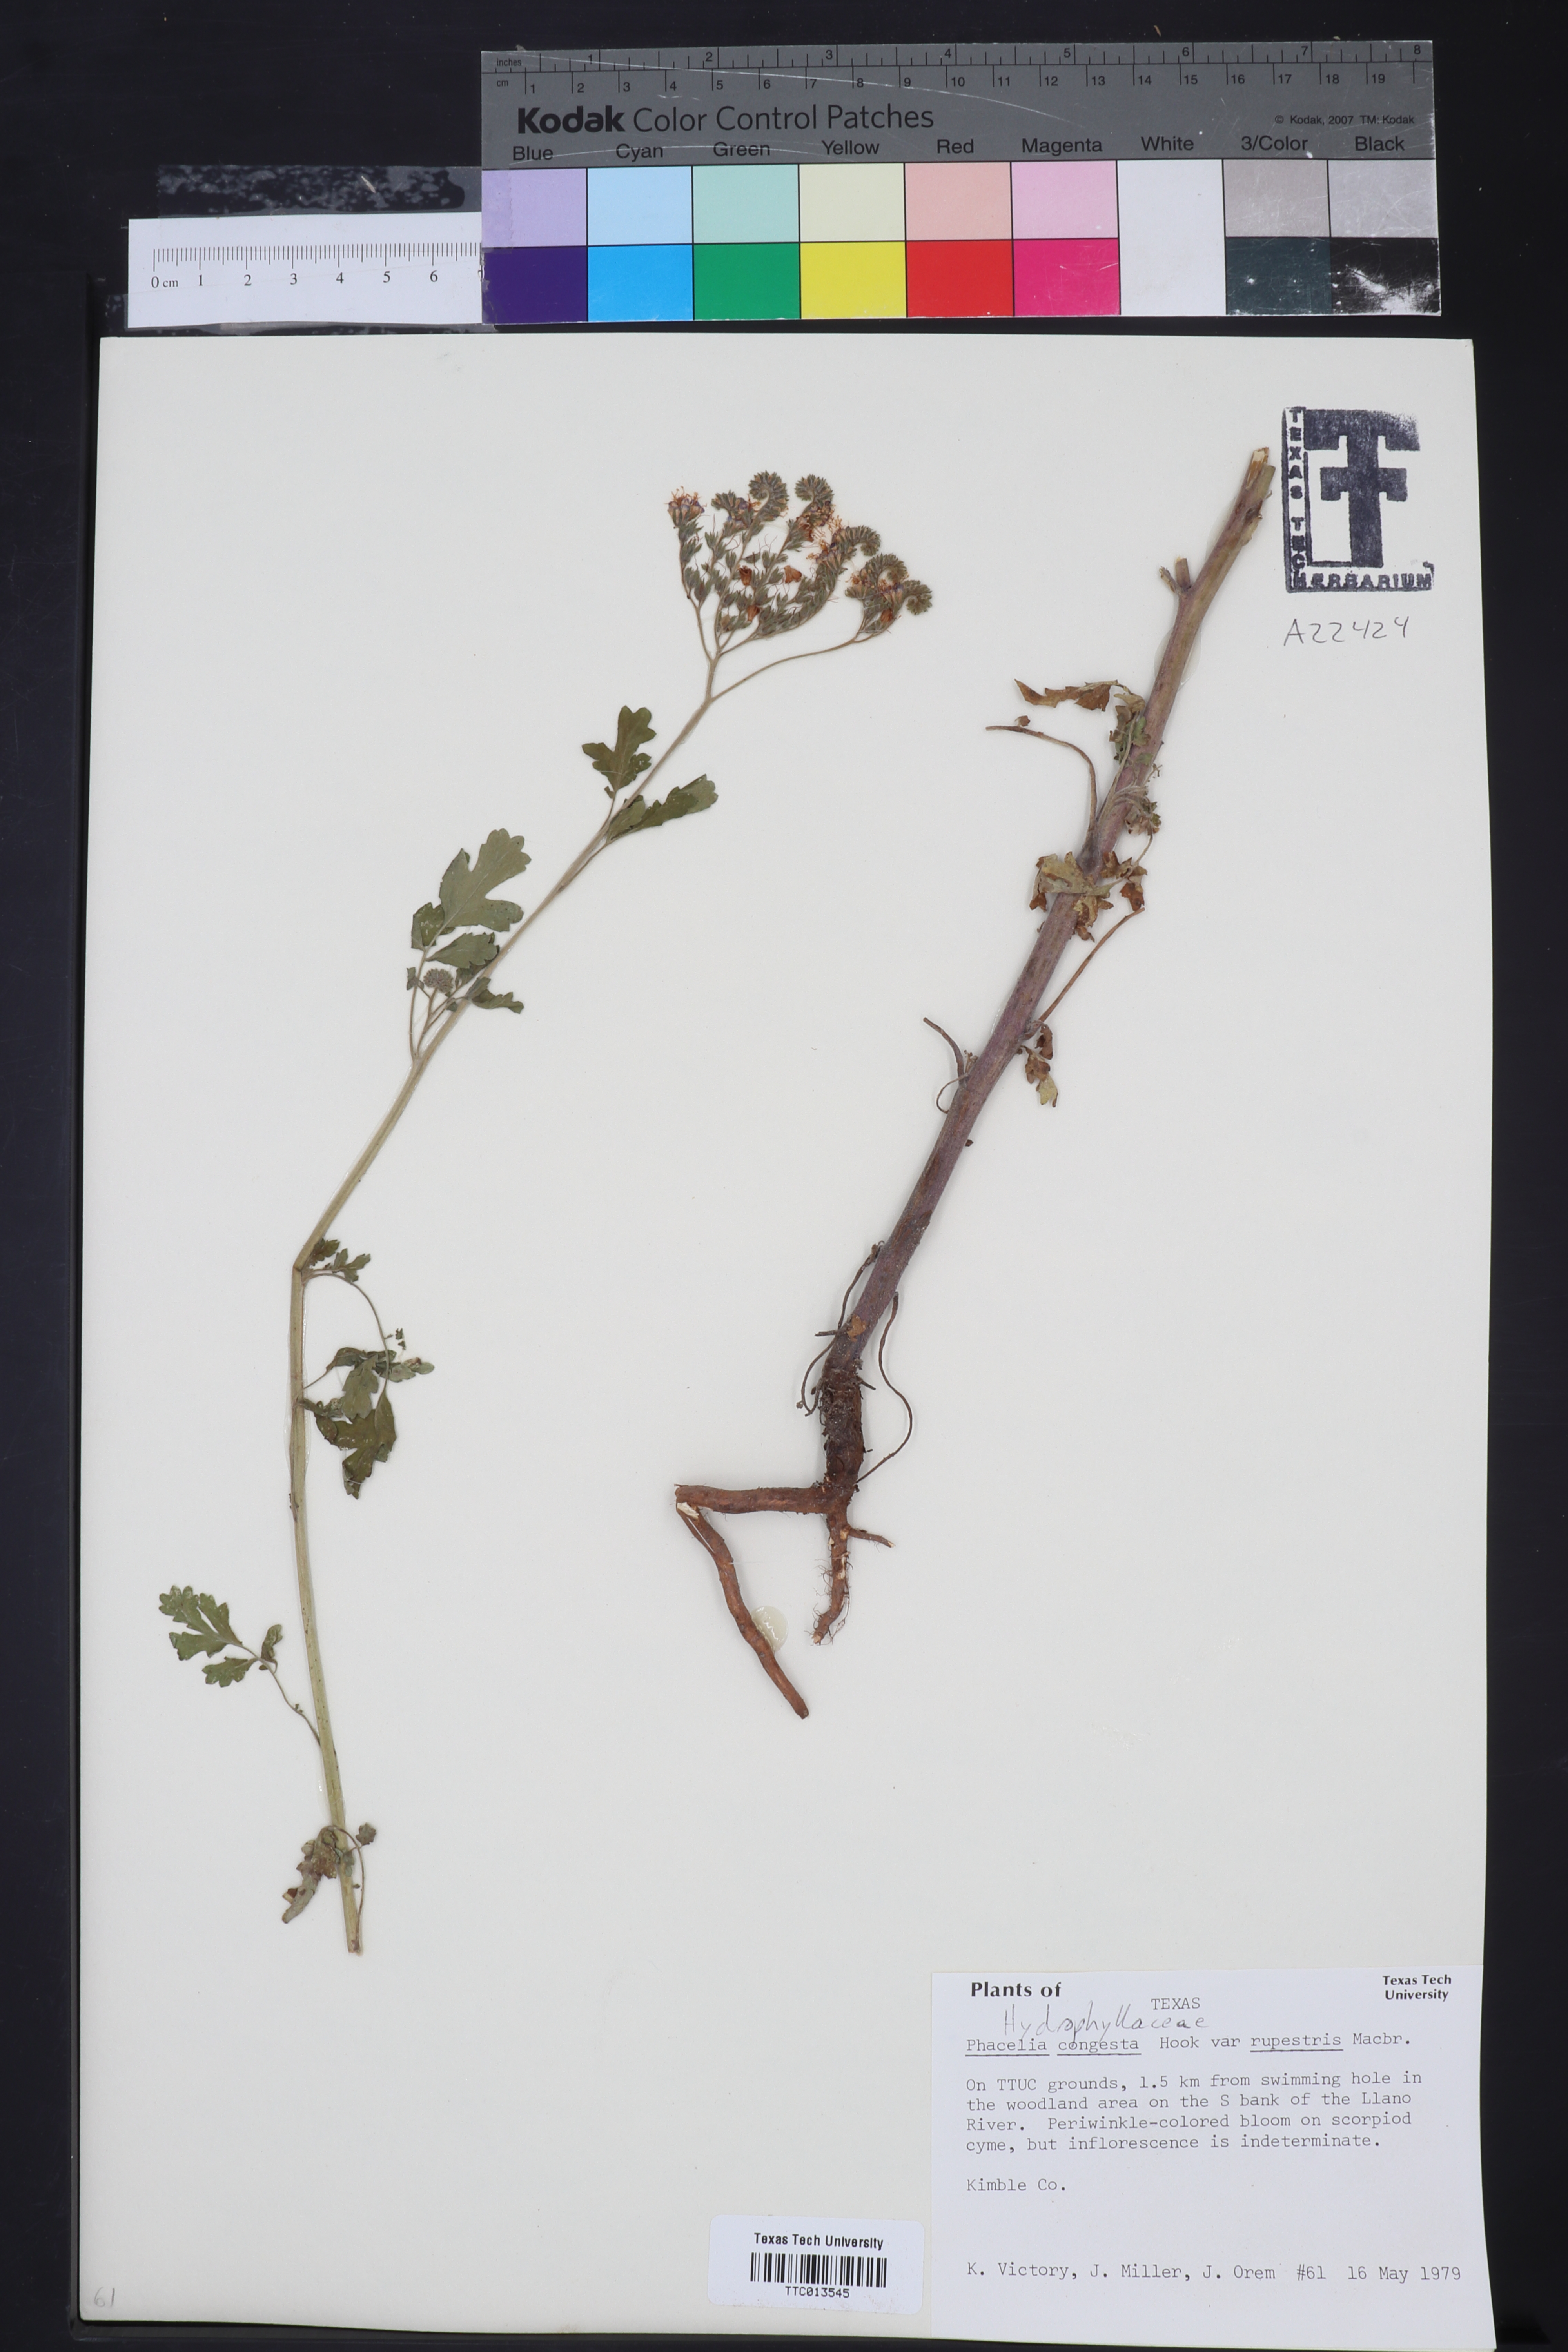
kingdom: Plantae
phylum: Tracheophyta
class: Magnoliopsida
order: Boraginales
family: Hydrophyllaceae
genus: Phacelia
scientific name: Phacelia rupestris
